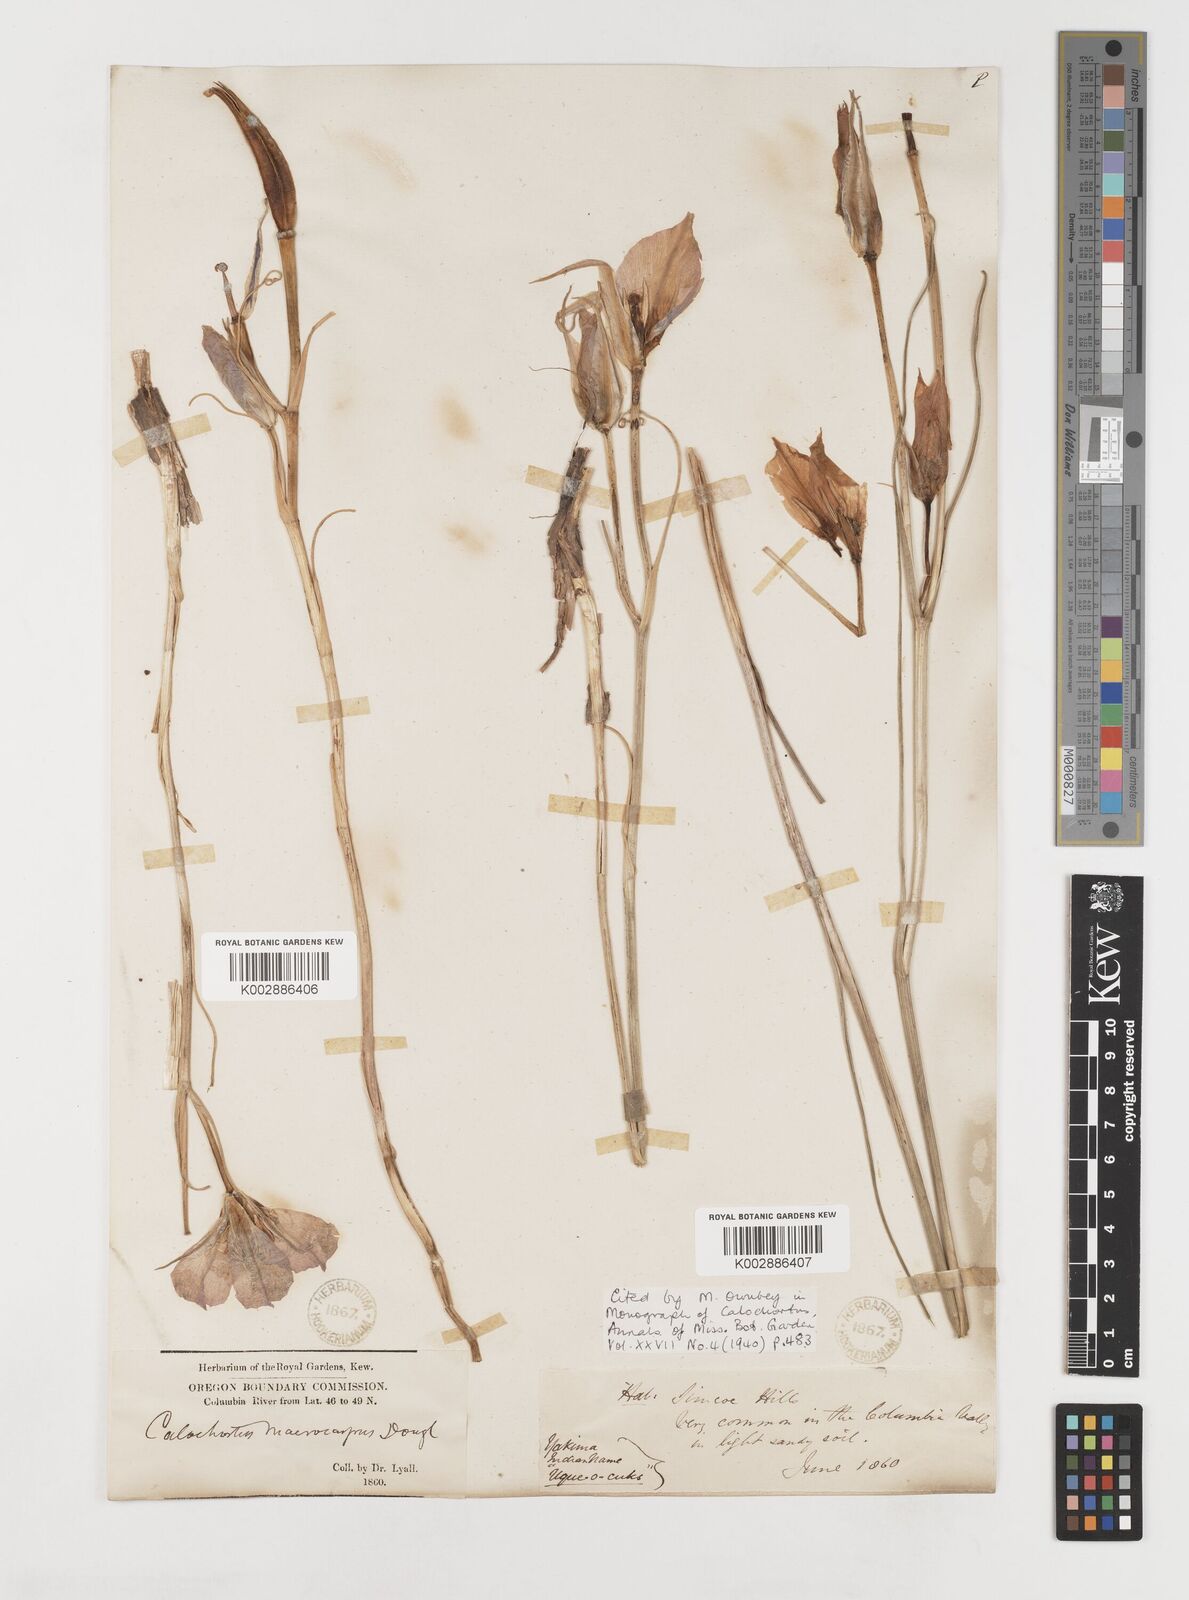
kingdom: Plantae
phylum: Tracheophyta
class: Liliopsida
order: Liliales
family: Liliaceae
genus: Calochortus
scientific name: Calochortus macrocarpus
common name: Green-band mariposa lily
